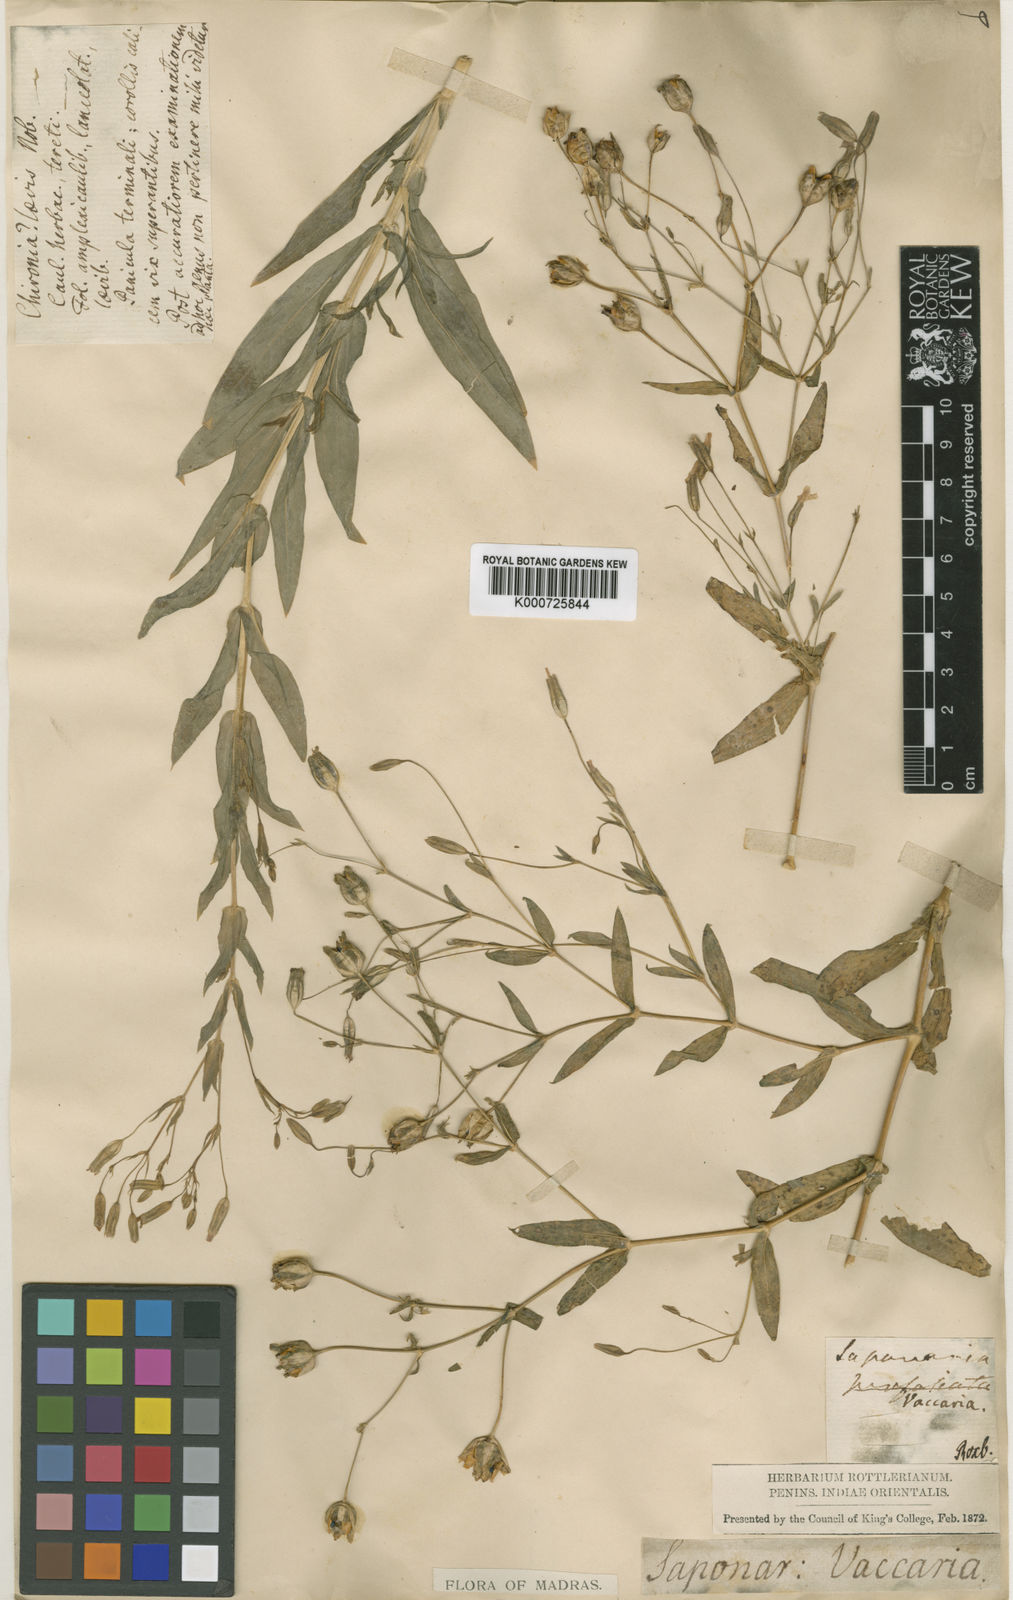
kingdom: Plantae
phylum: Tracheophyta
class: Magnoliopsida
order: Caryophyllales
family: Caryophyllaceae
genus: Gypsophila
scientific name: Gypsophila vaccaria
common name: Cow soapwort
